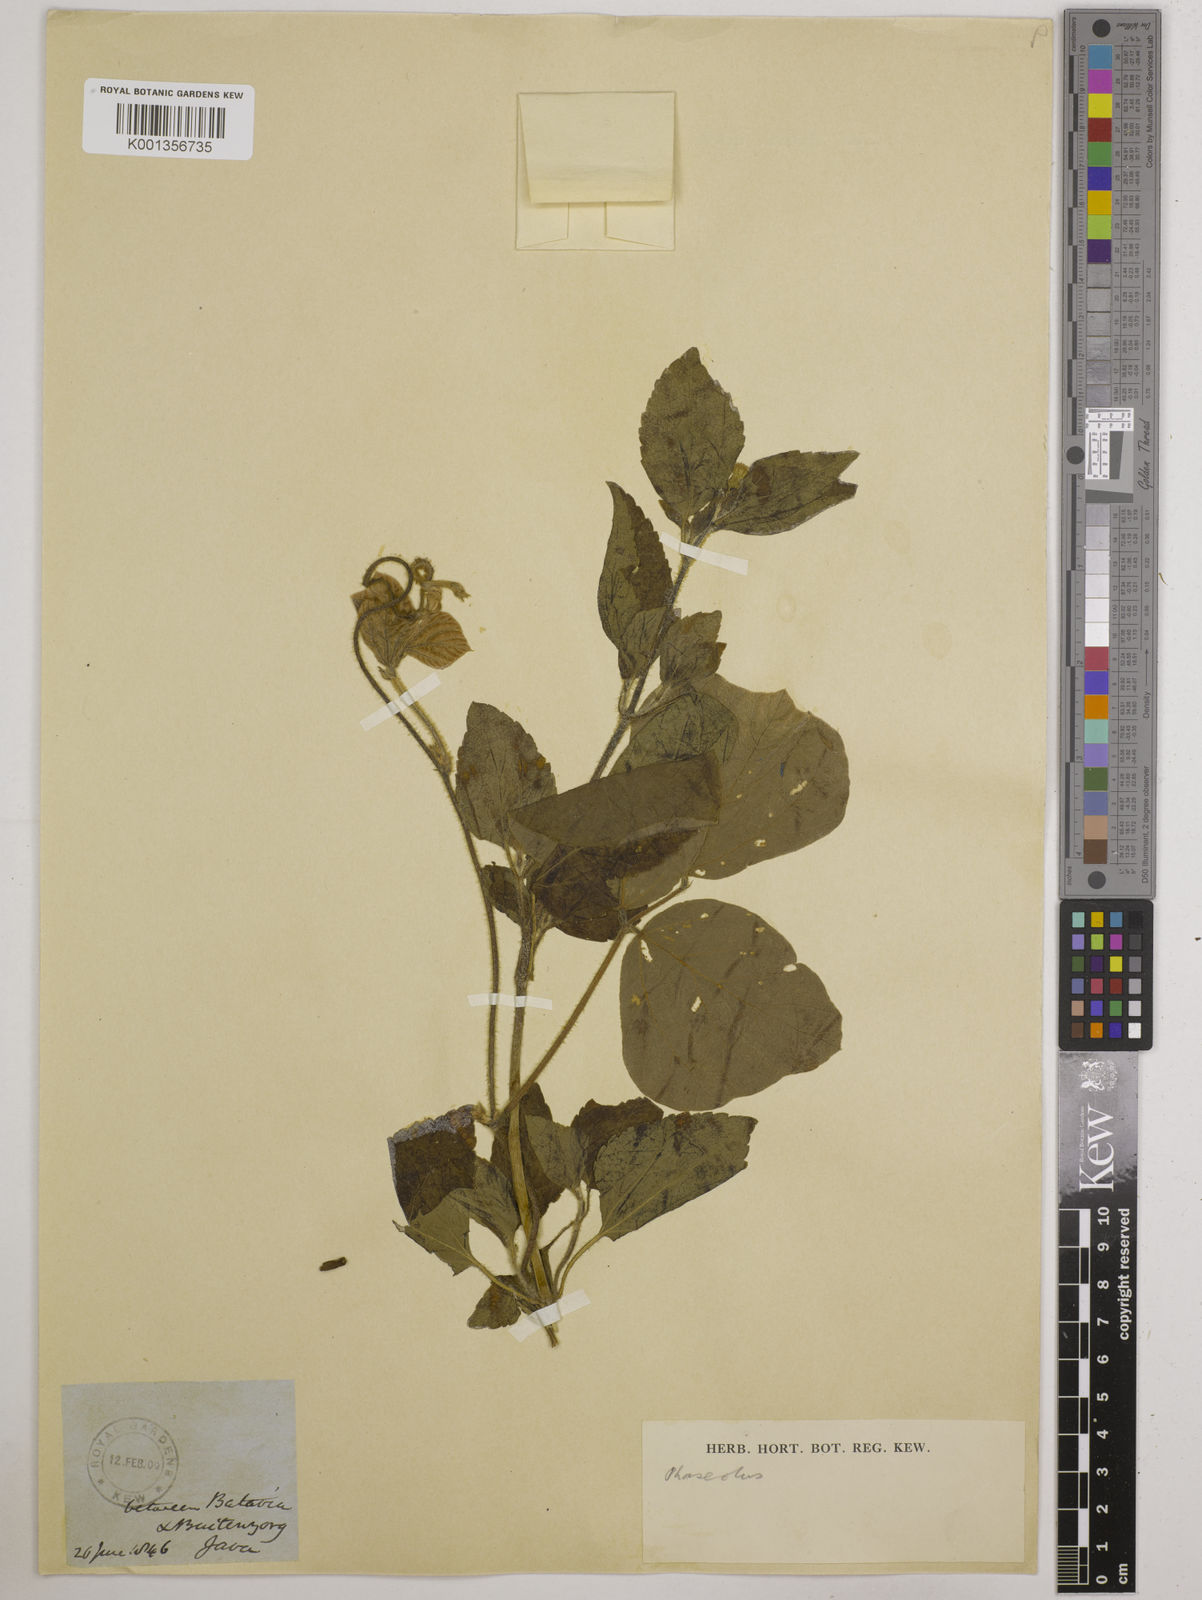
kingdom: Plantae
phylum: Tracheophyta
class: Magnoliopsida
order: Fabales
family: Fabaceae
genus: Vigna
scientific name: Vigna
